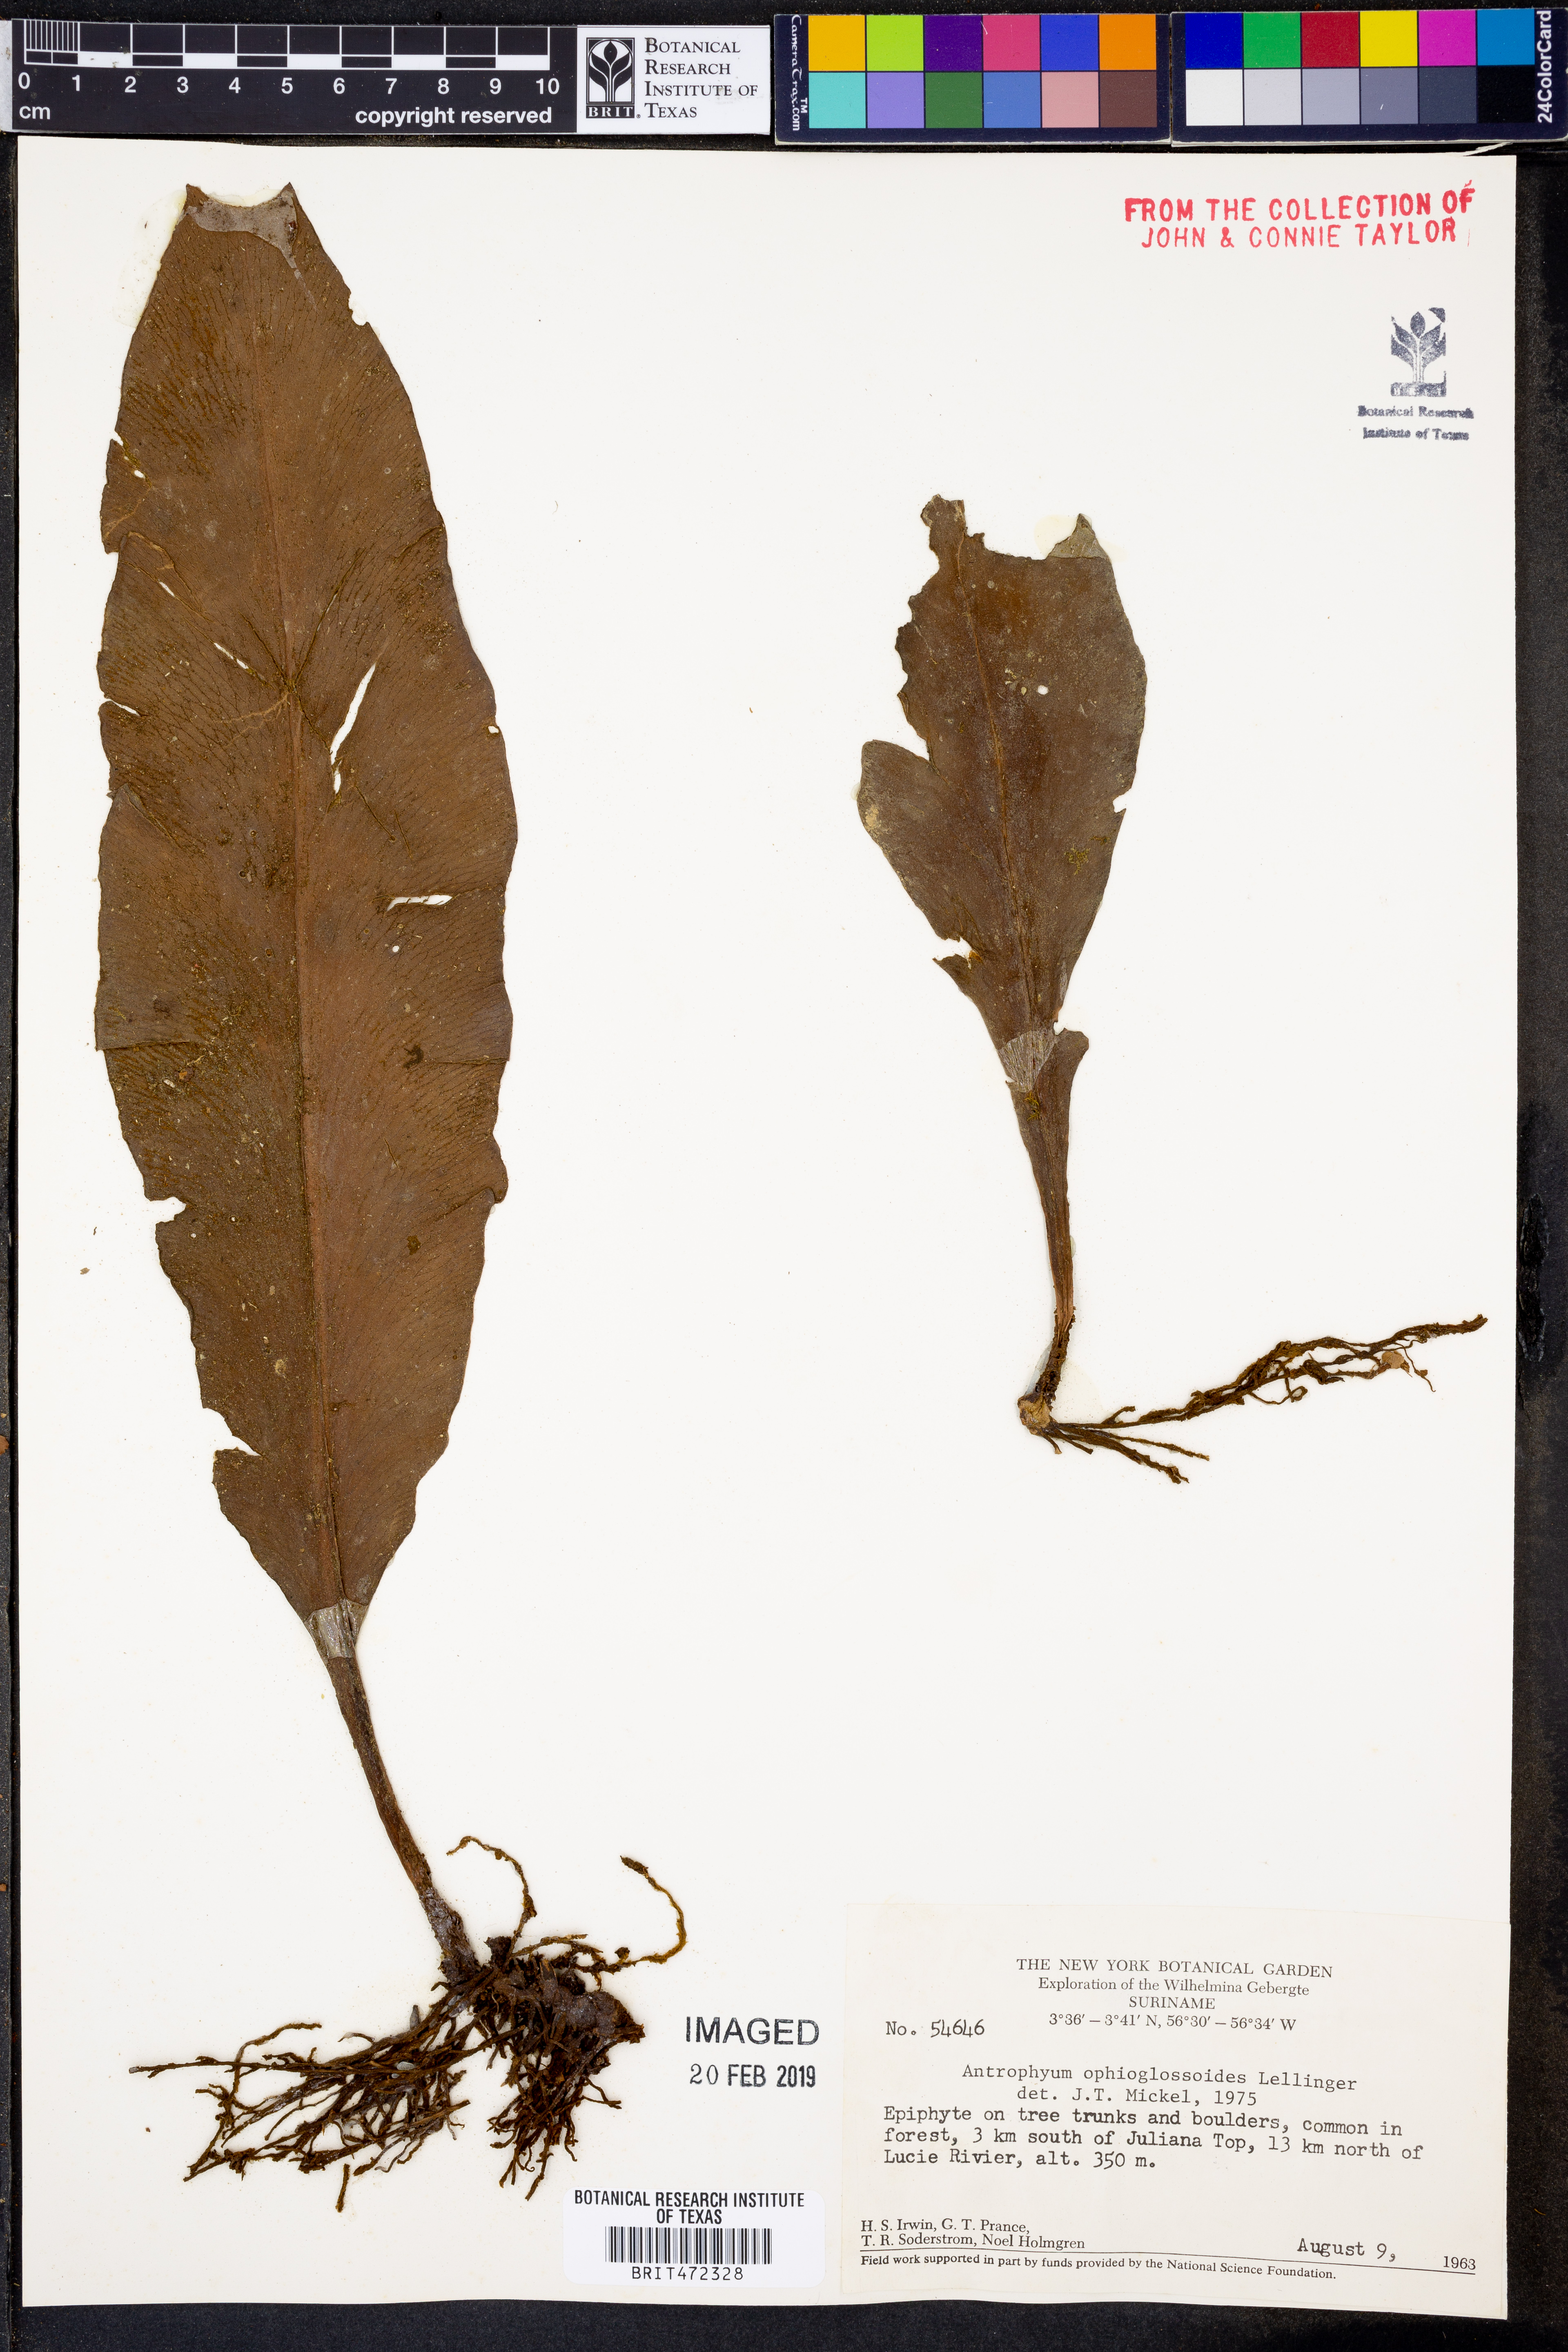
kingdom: Plantae
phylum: Tracheophyta
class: Polypodiopsida
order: Polypodiales
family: Pteridaceae
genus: Polytaenium
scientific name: Polytaenium ophioglossoides
